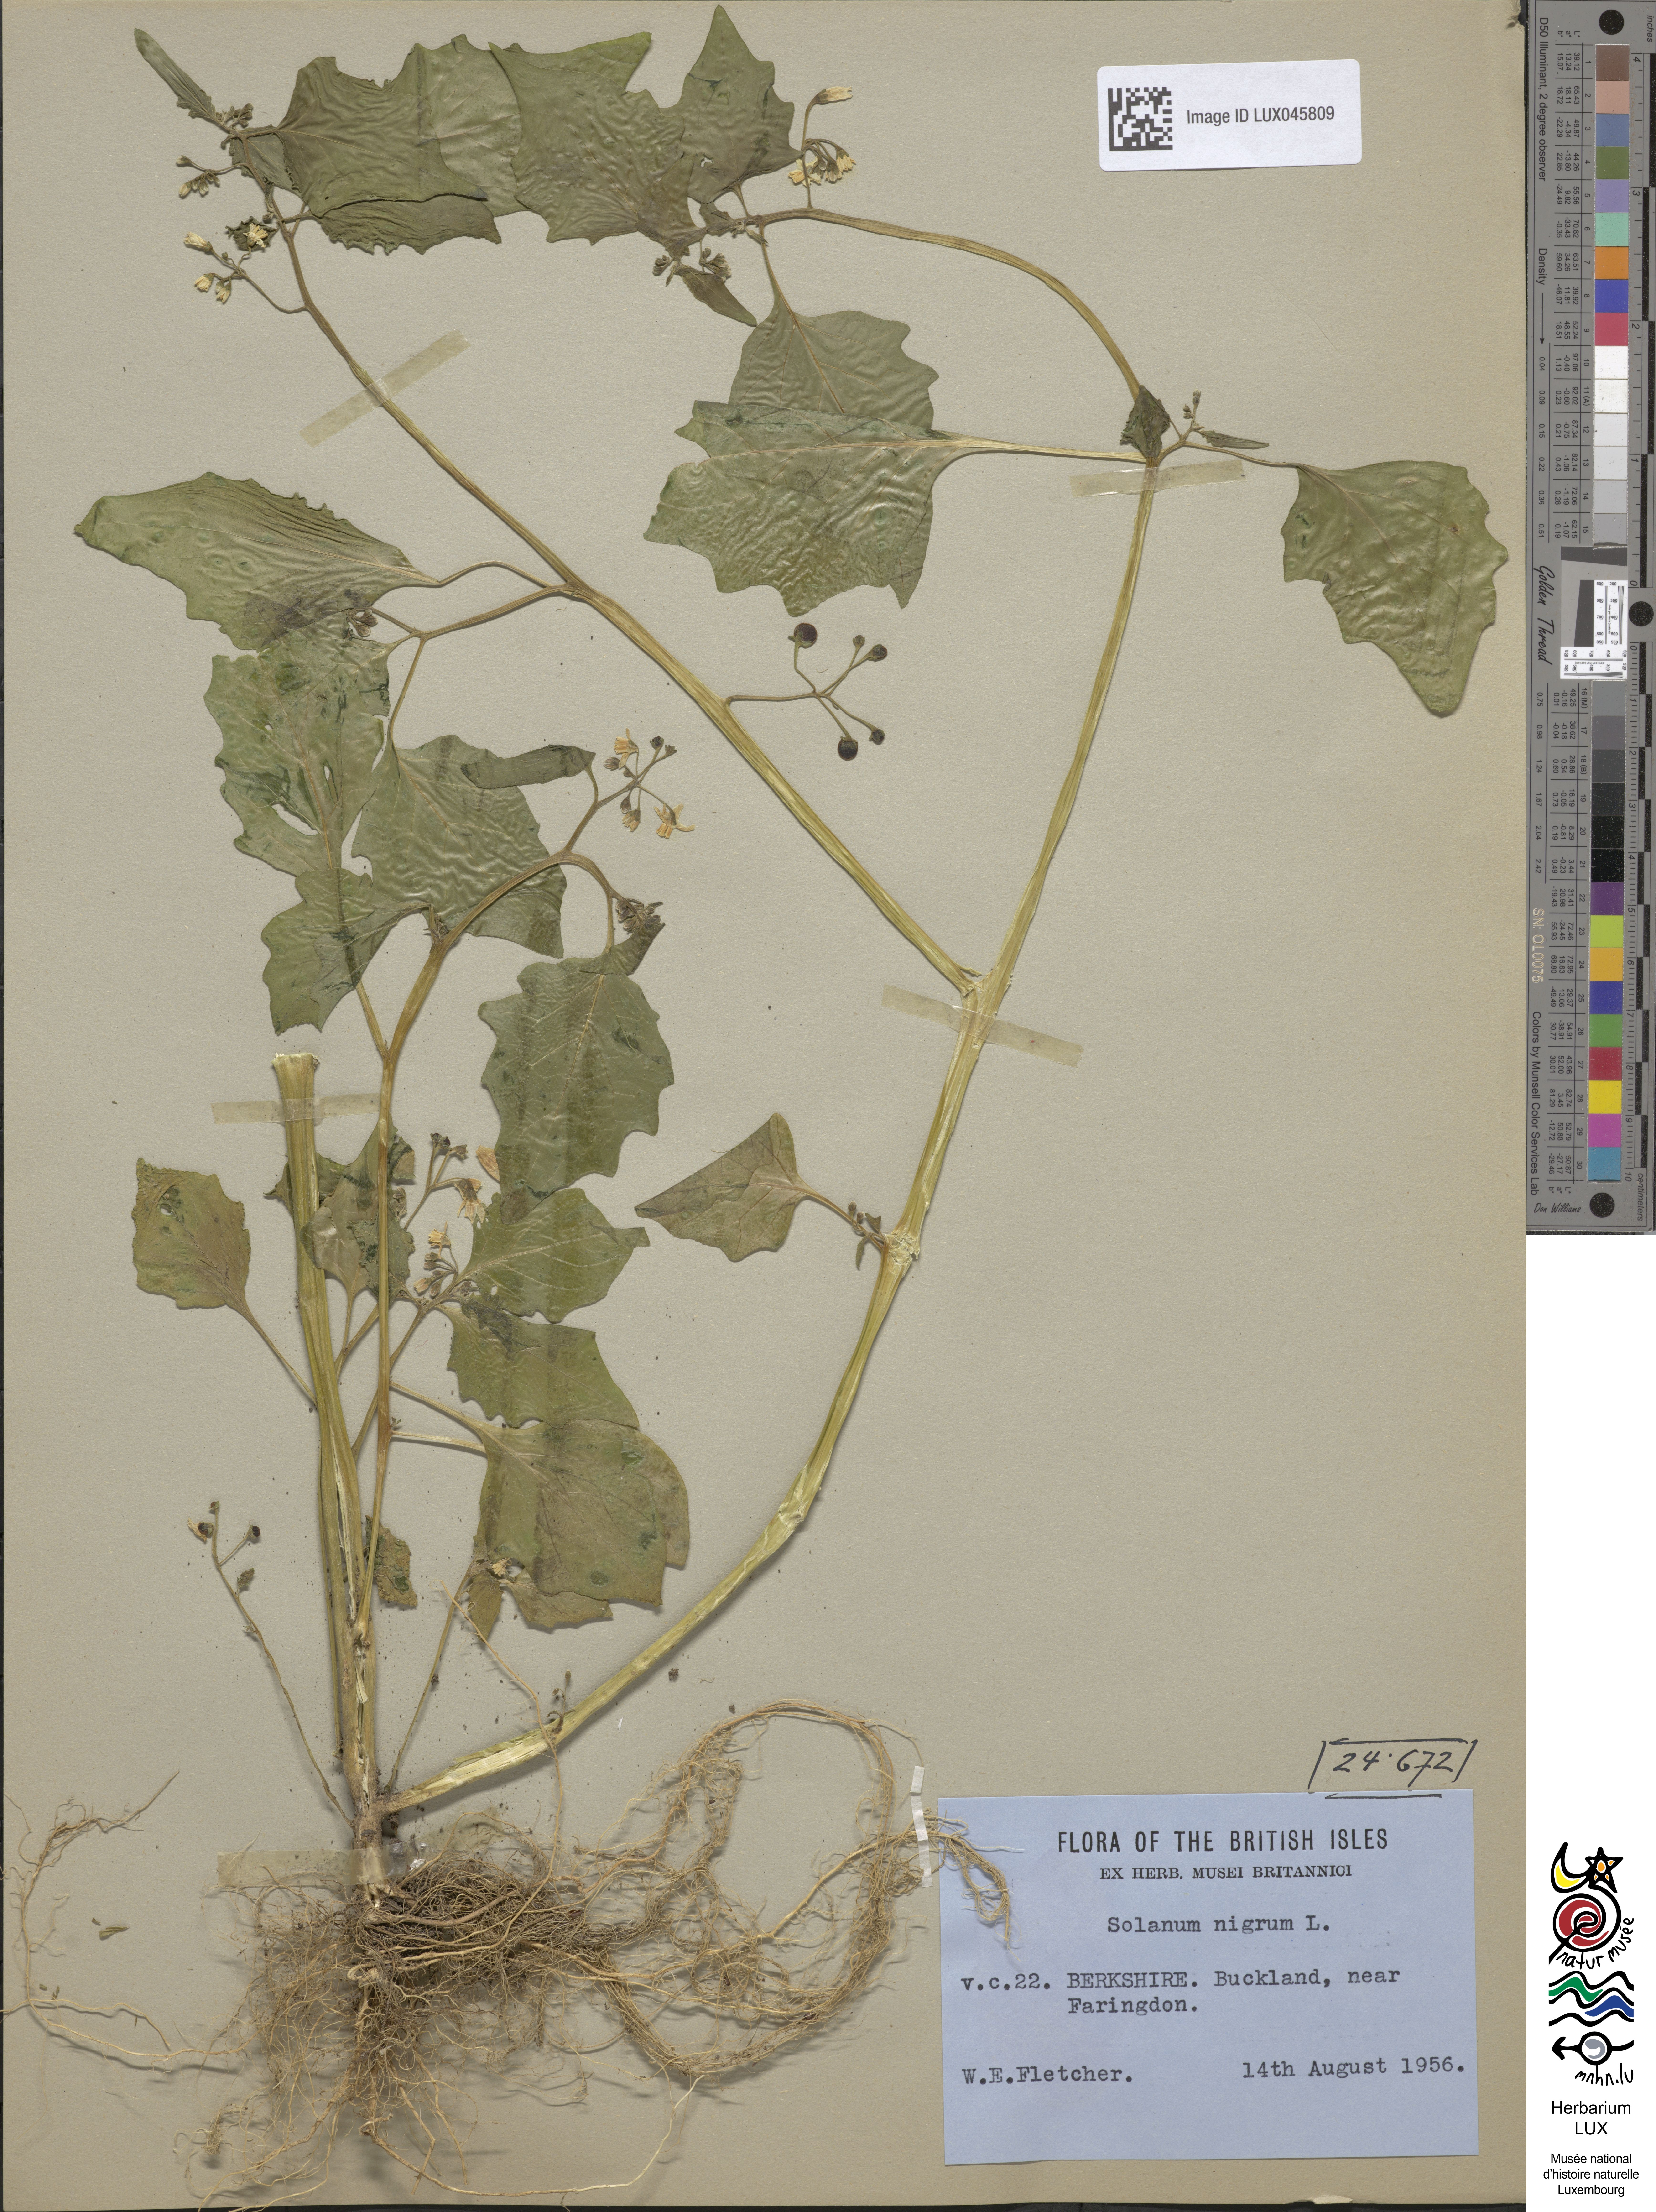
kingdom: Plantae
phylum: Tracheophyta
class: Magnoliopsida
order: Solanales
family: Solanaceae
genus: Solanum
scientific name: Solanum nigrum
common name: Black nightshade
